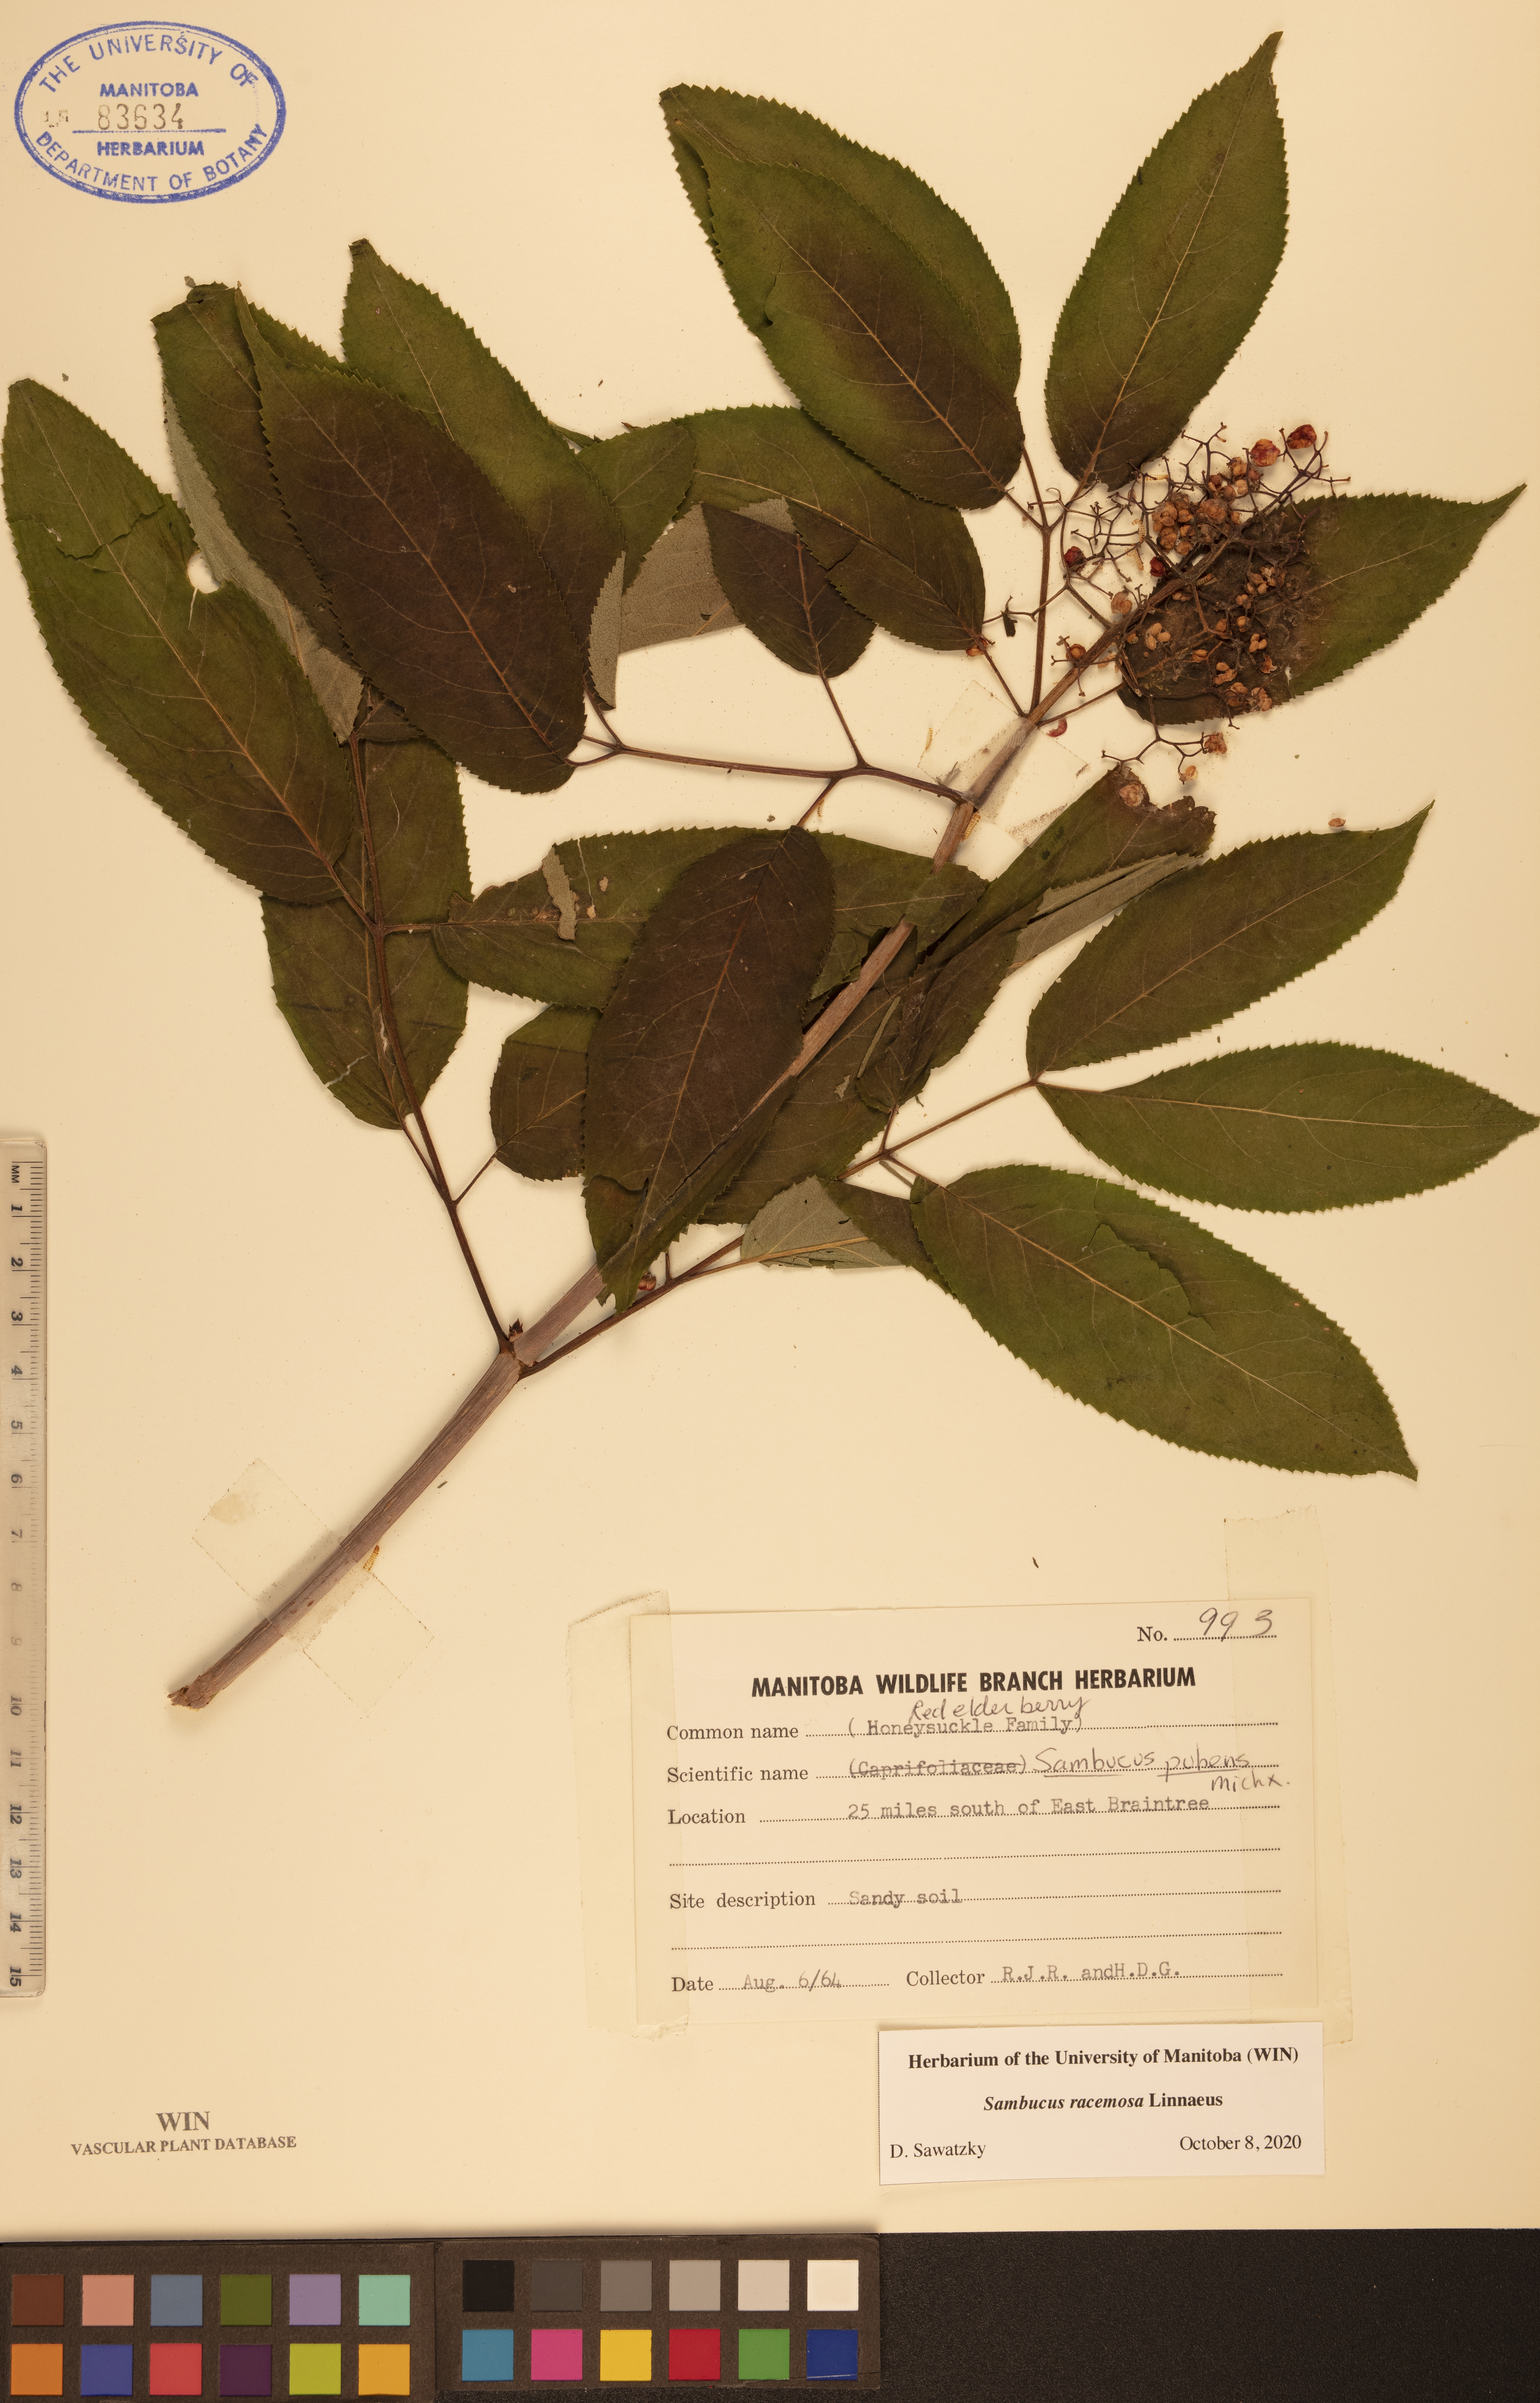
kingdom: Plantae
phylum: Tracheophyta
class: Magnoliopsida
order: Dipsacales
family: Viburnaceae
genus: Sambucus
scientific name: Sambucus racemosa
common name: Red-berried elder
